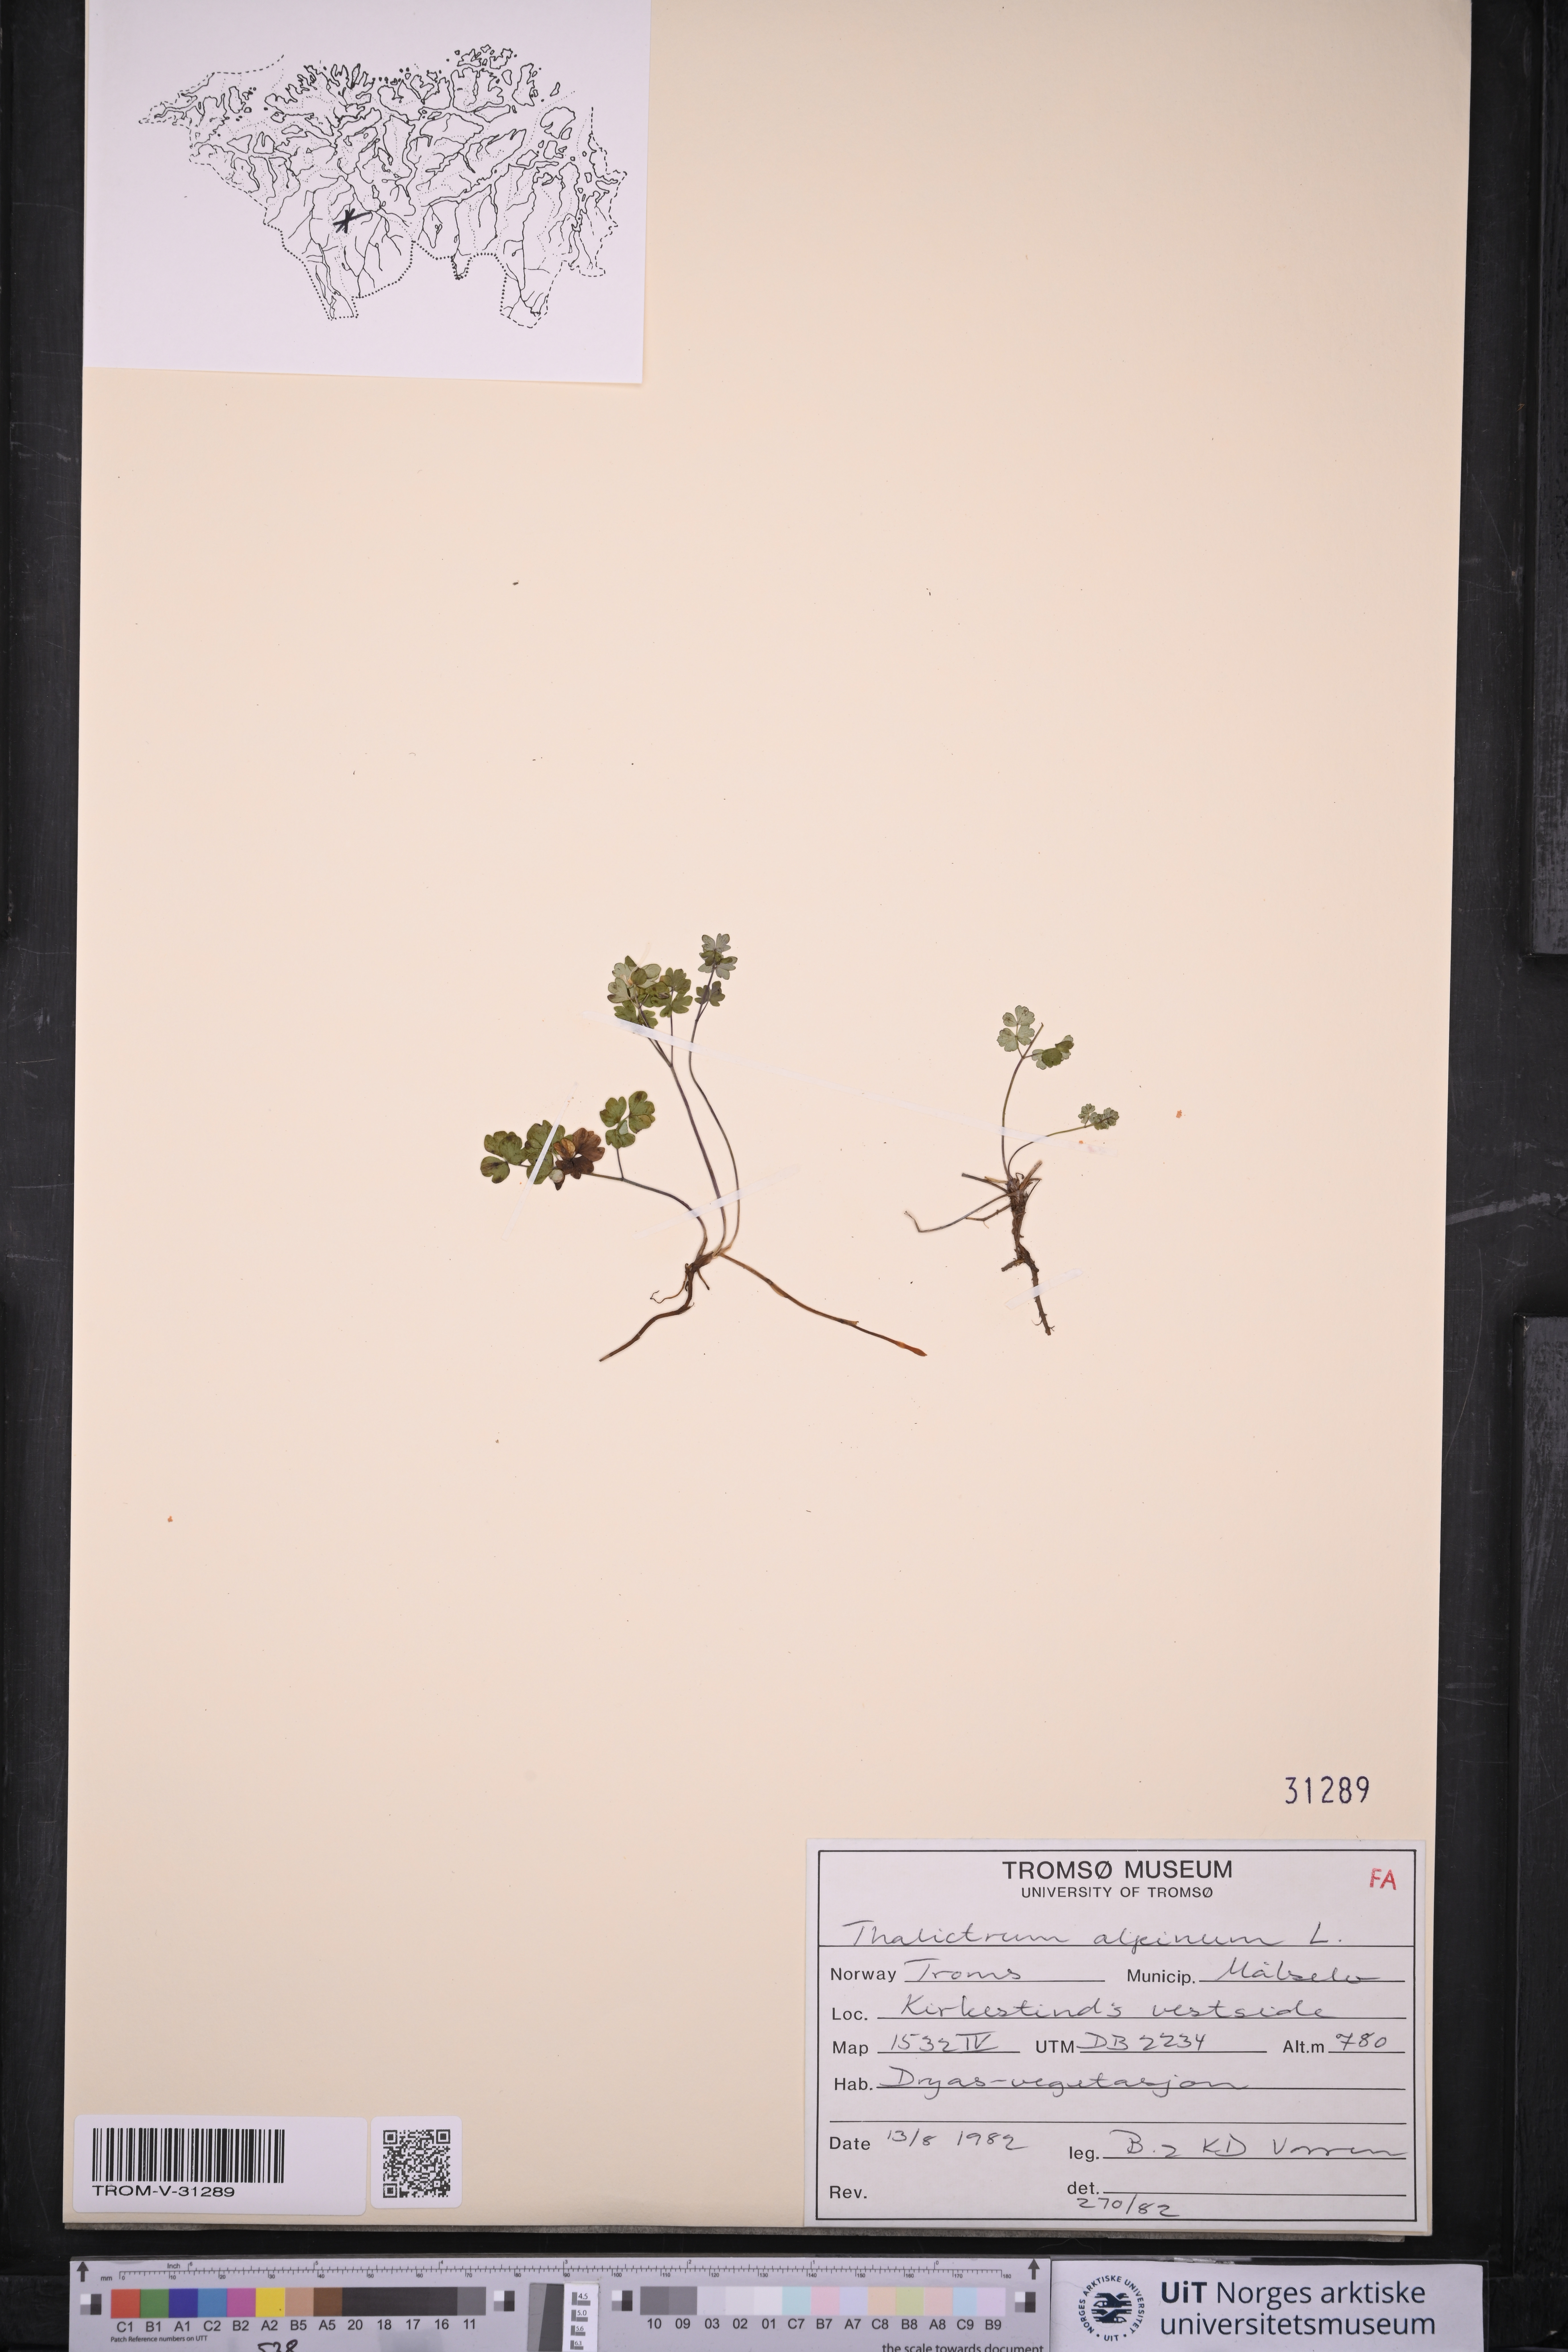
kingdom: Plantae
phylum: Tracheophyta
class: Magnoliopsida
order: Ranunculales
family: Ranunculaceae
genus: Thalictrum
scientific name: Thalictrum alpinum
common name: Alpine meadow-rue
